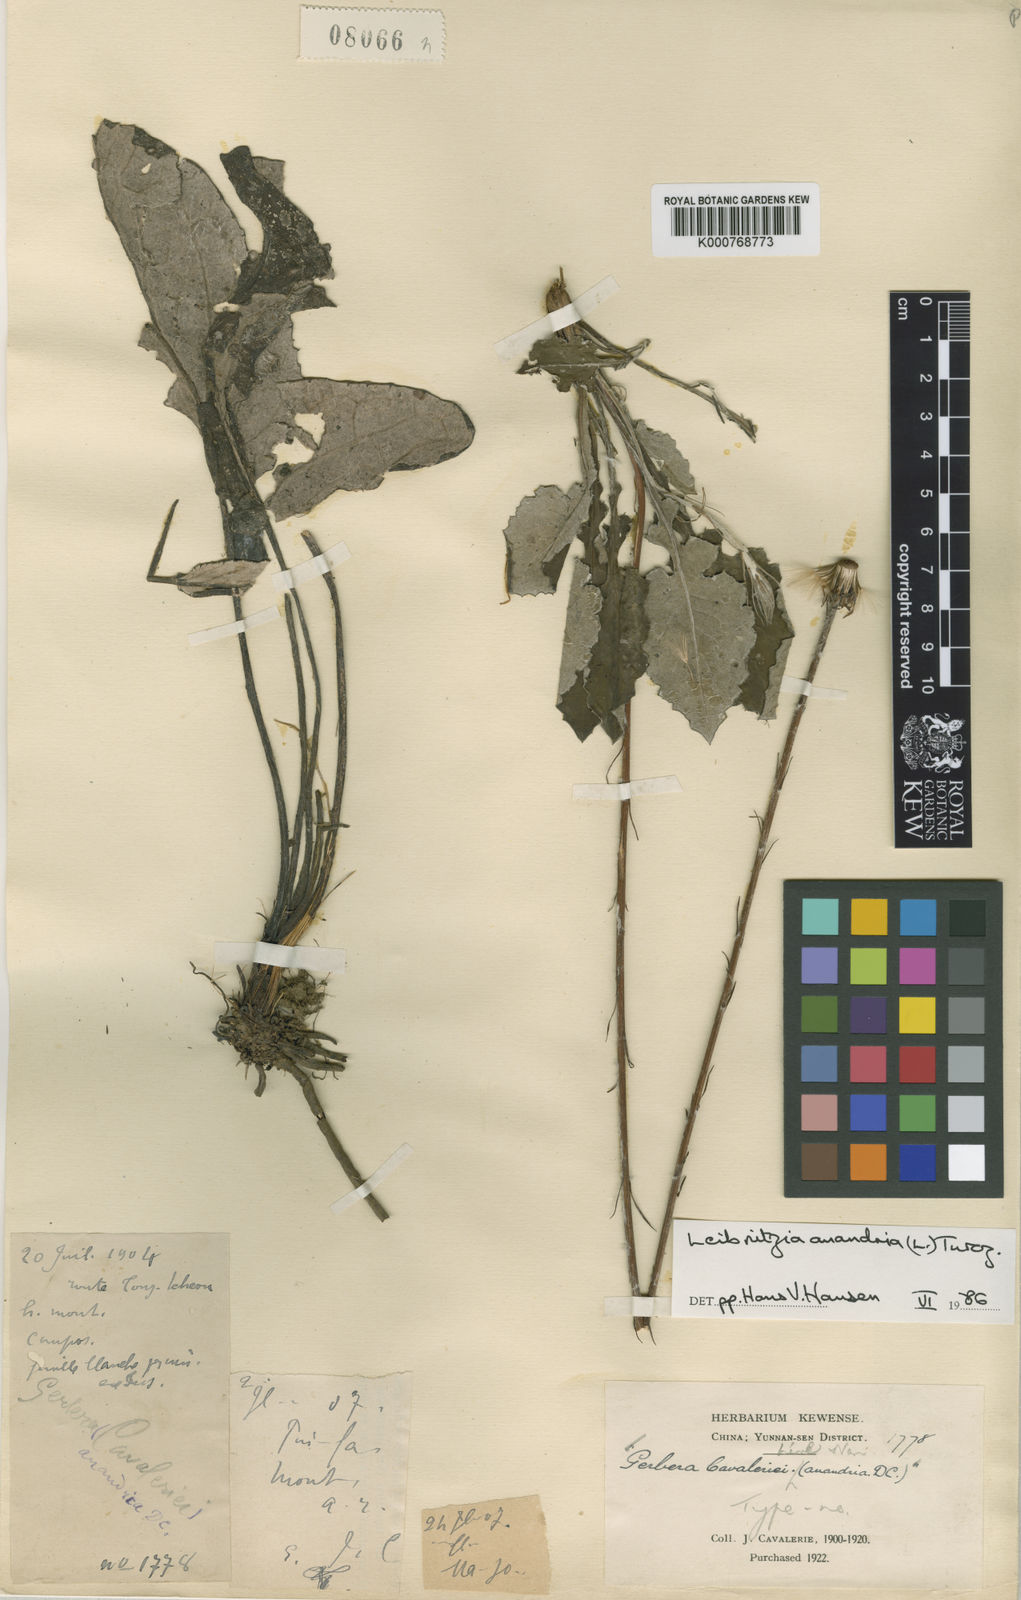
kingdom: Plantae
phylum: Tracheophyta
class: Magnoliopsida
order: Asterales
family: Asteraceae
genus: Leibnitzia
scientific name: Leibnitzia
